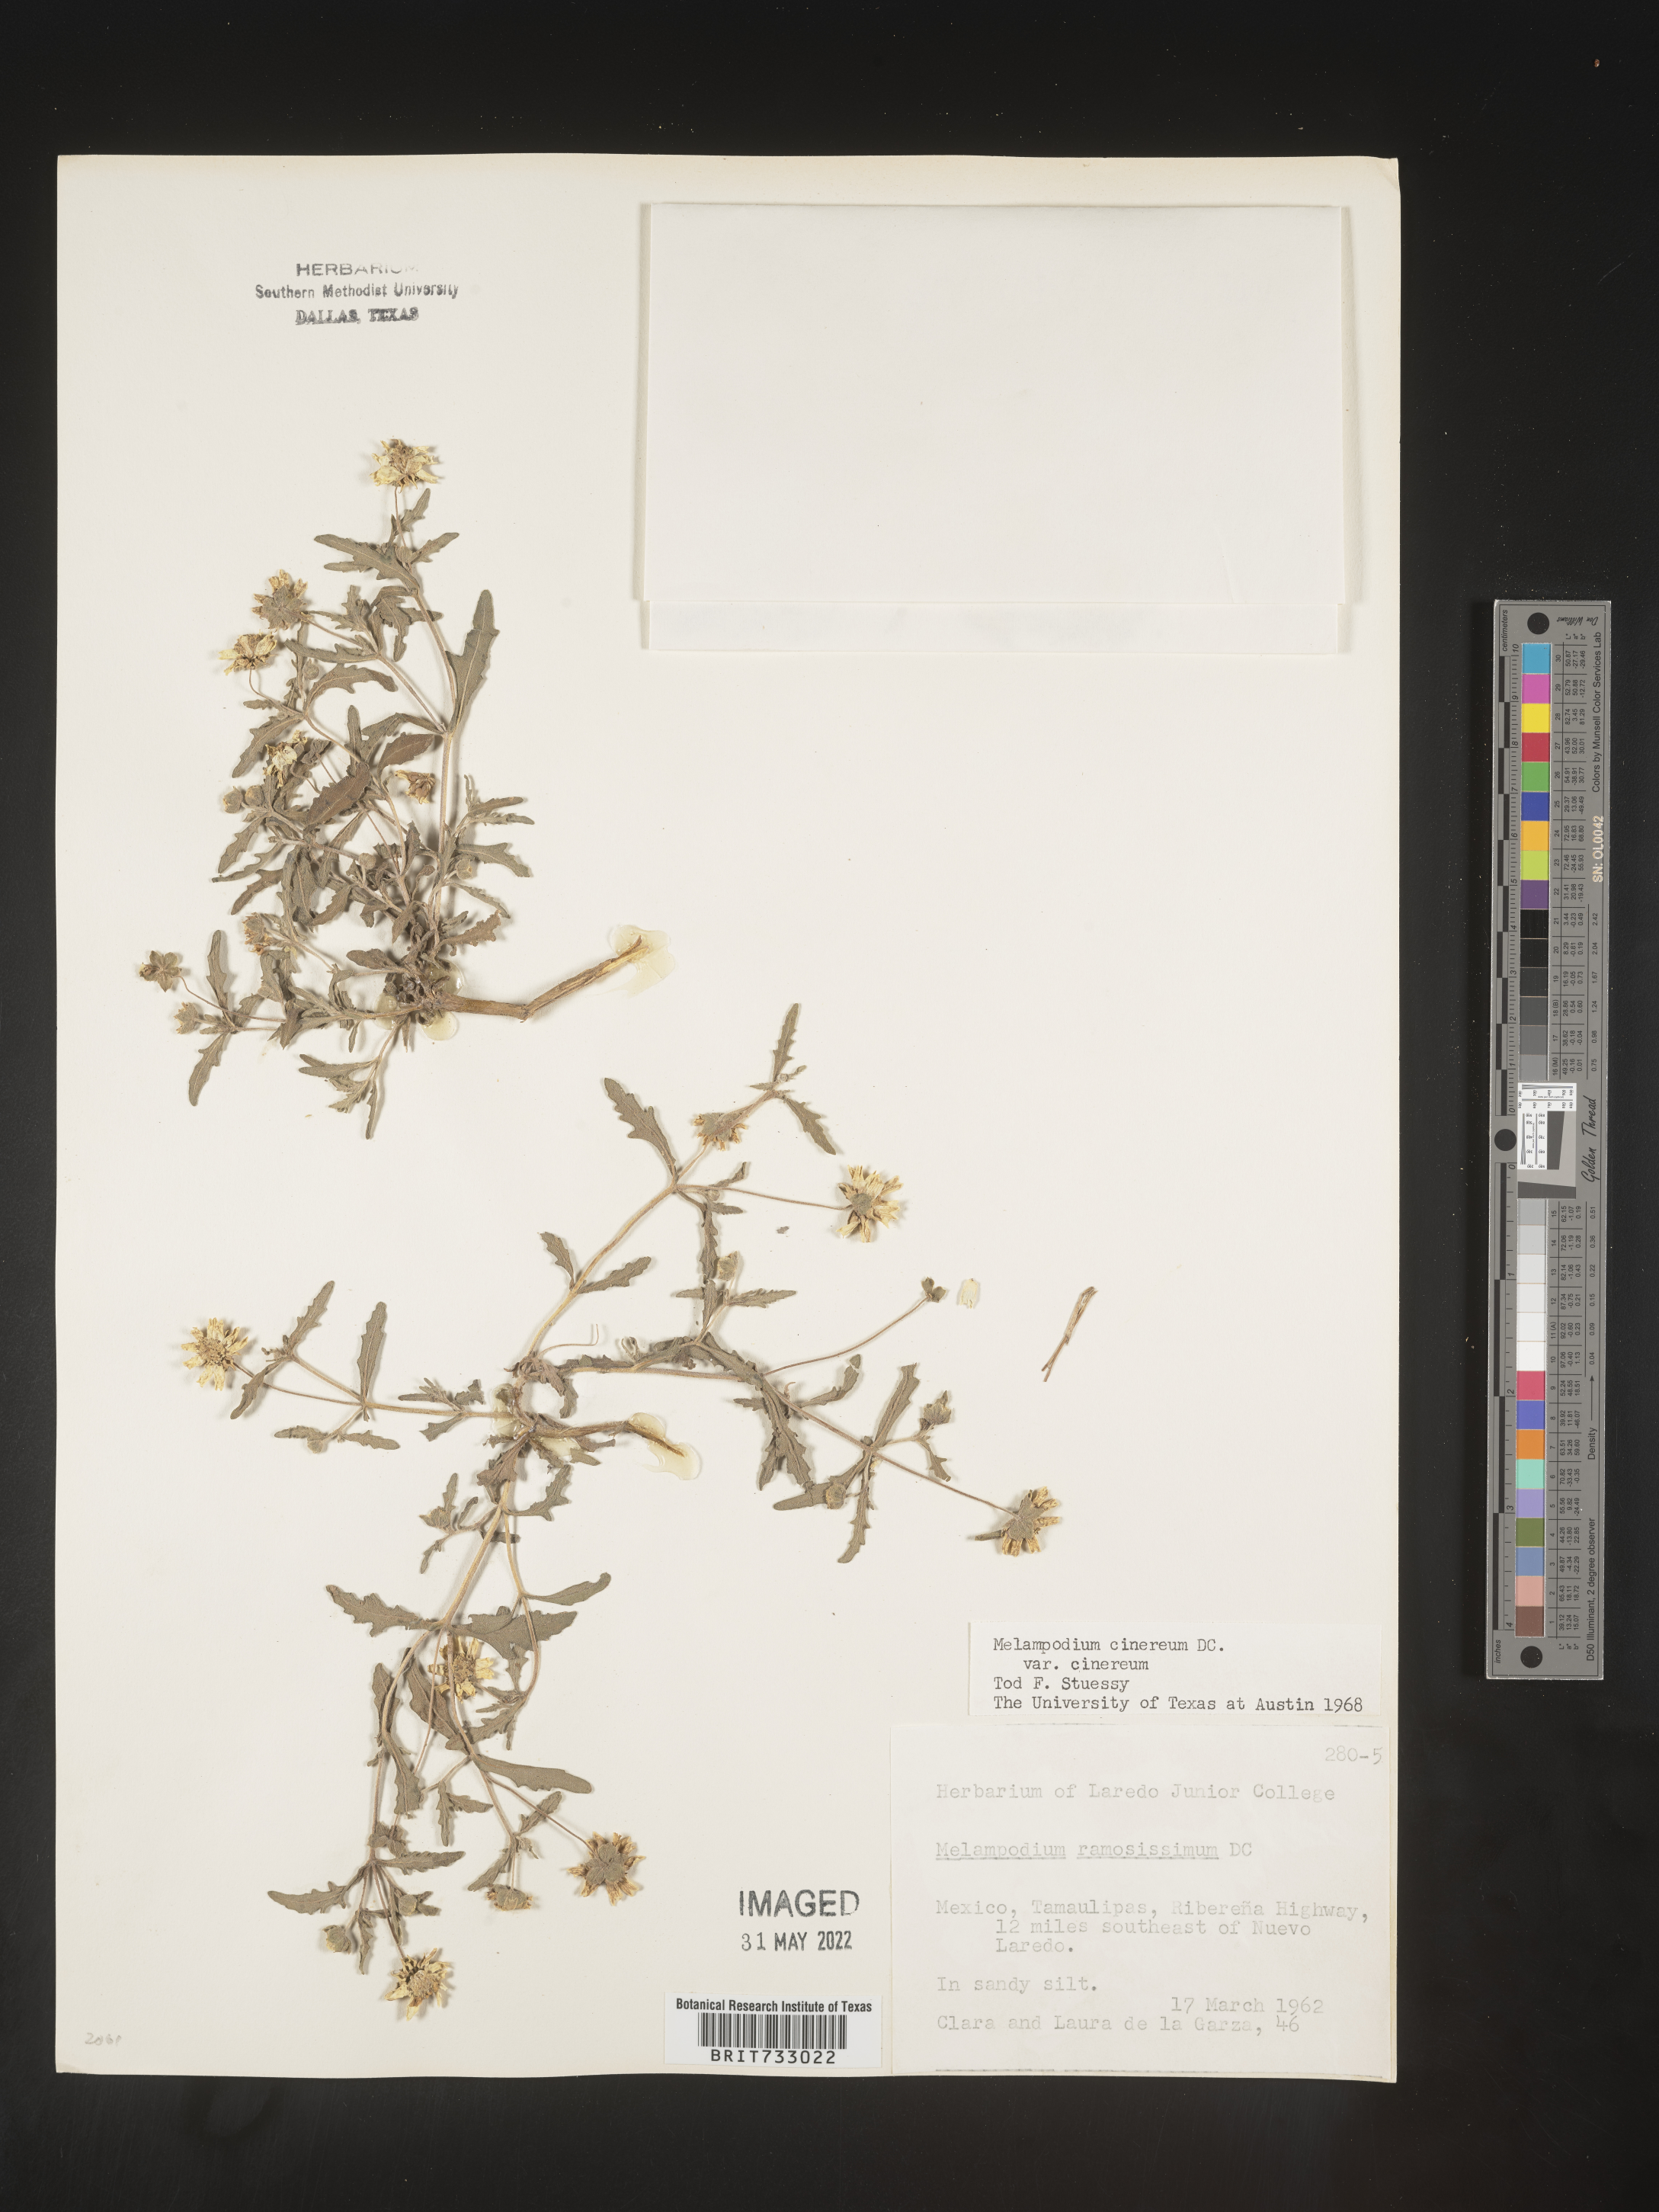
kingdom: Plantae
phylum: Tracheophyta
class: Magnoliopsida
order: Asterales
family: Asteraceae
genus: Melampodium
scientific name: Melampodium
